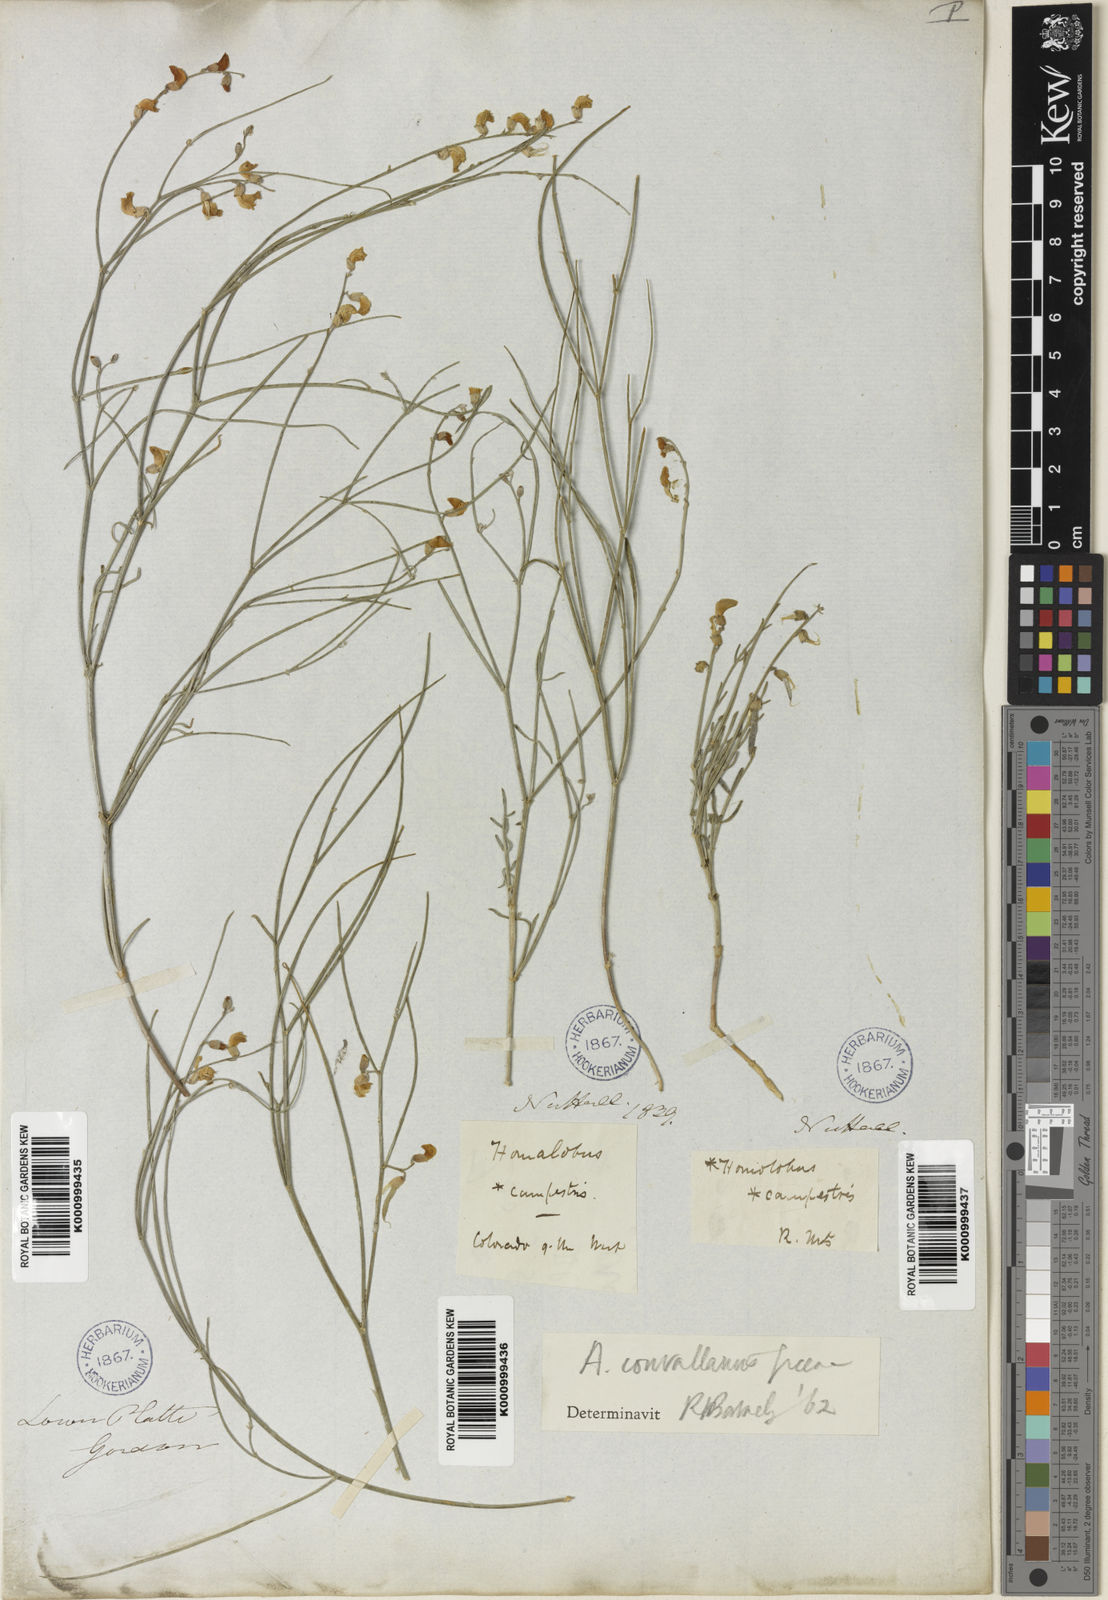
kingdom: Plantae
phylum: Tracheophyta
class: Magnoliopsida
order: Fabales
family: Fabaceae
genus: Astragalus
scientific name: Astragalus convallarius
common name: Lesser rushy milk-vetch
